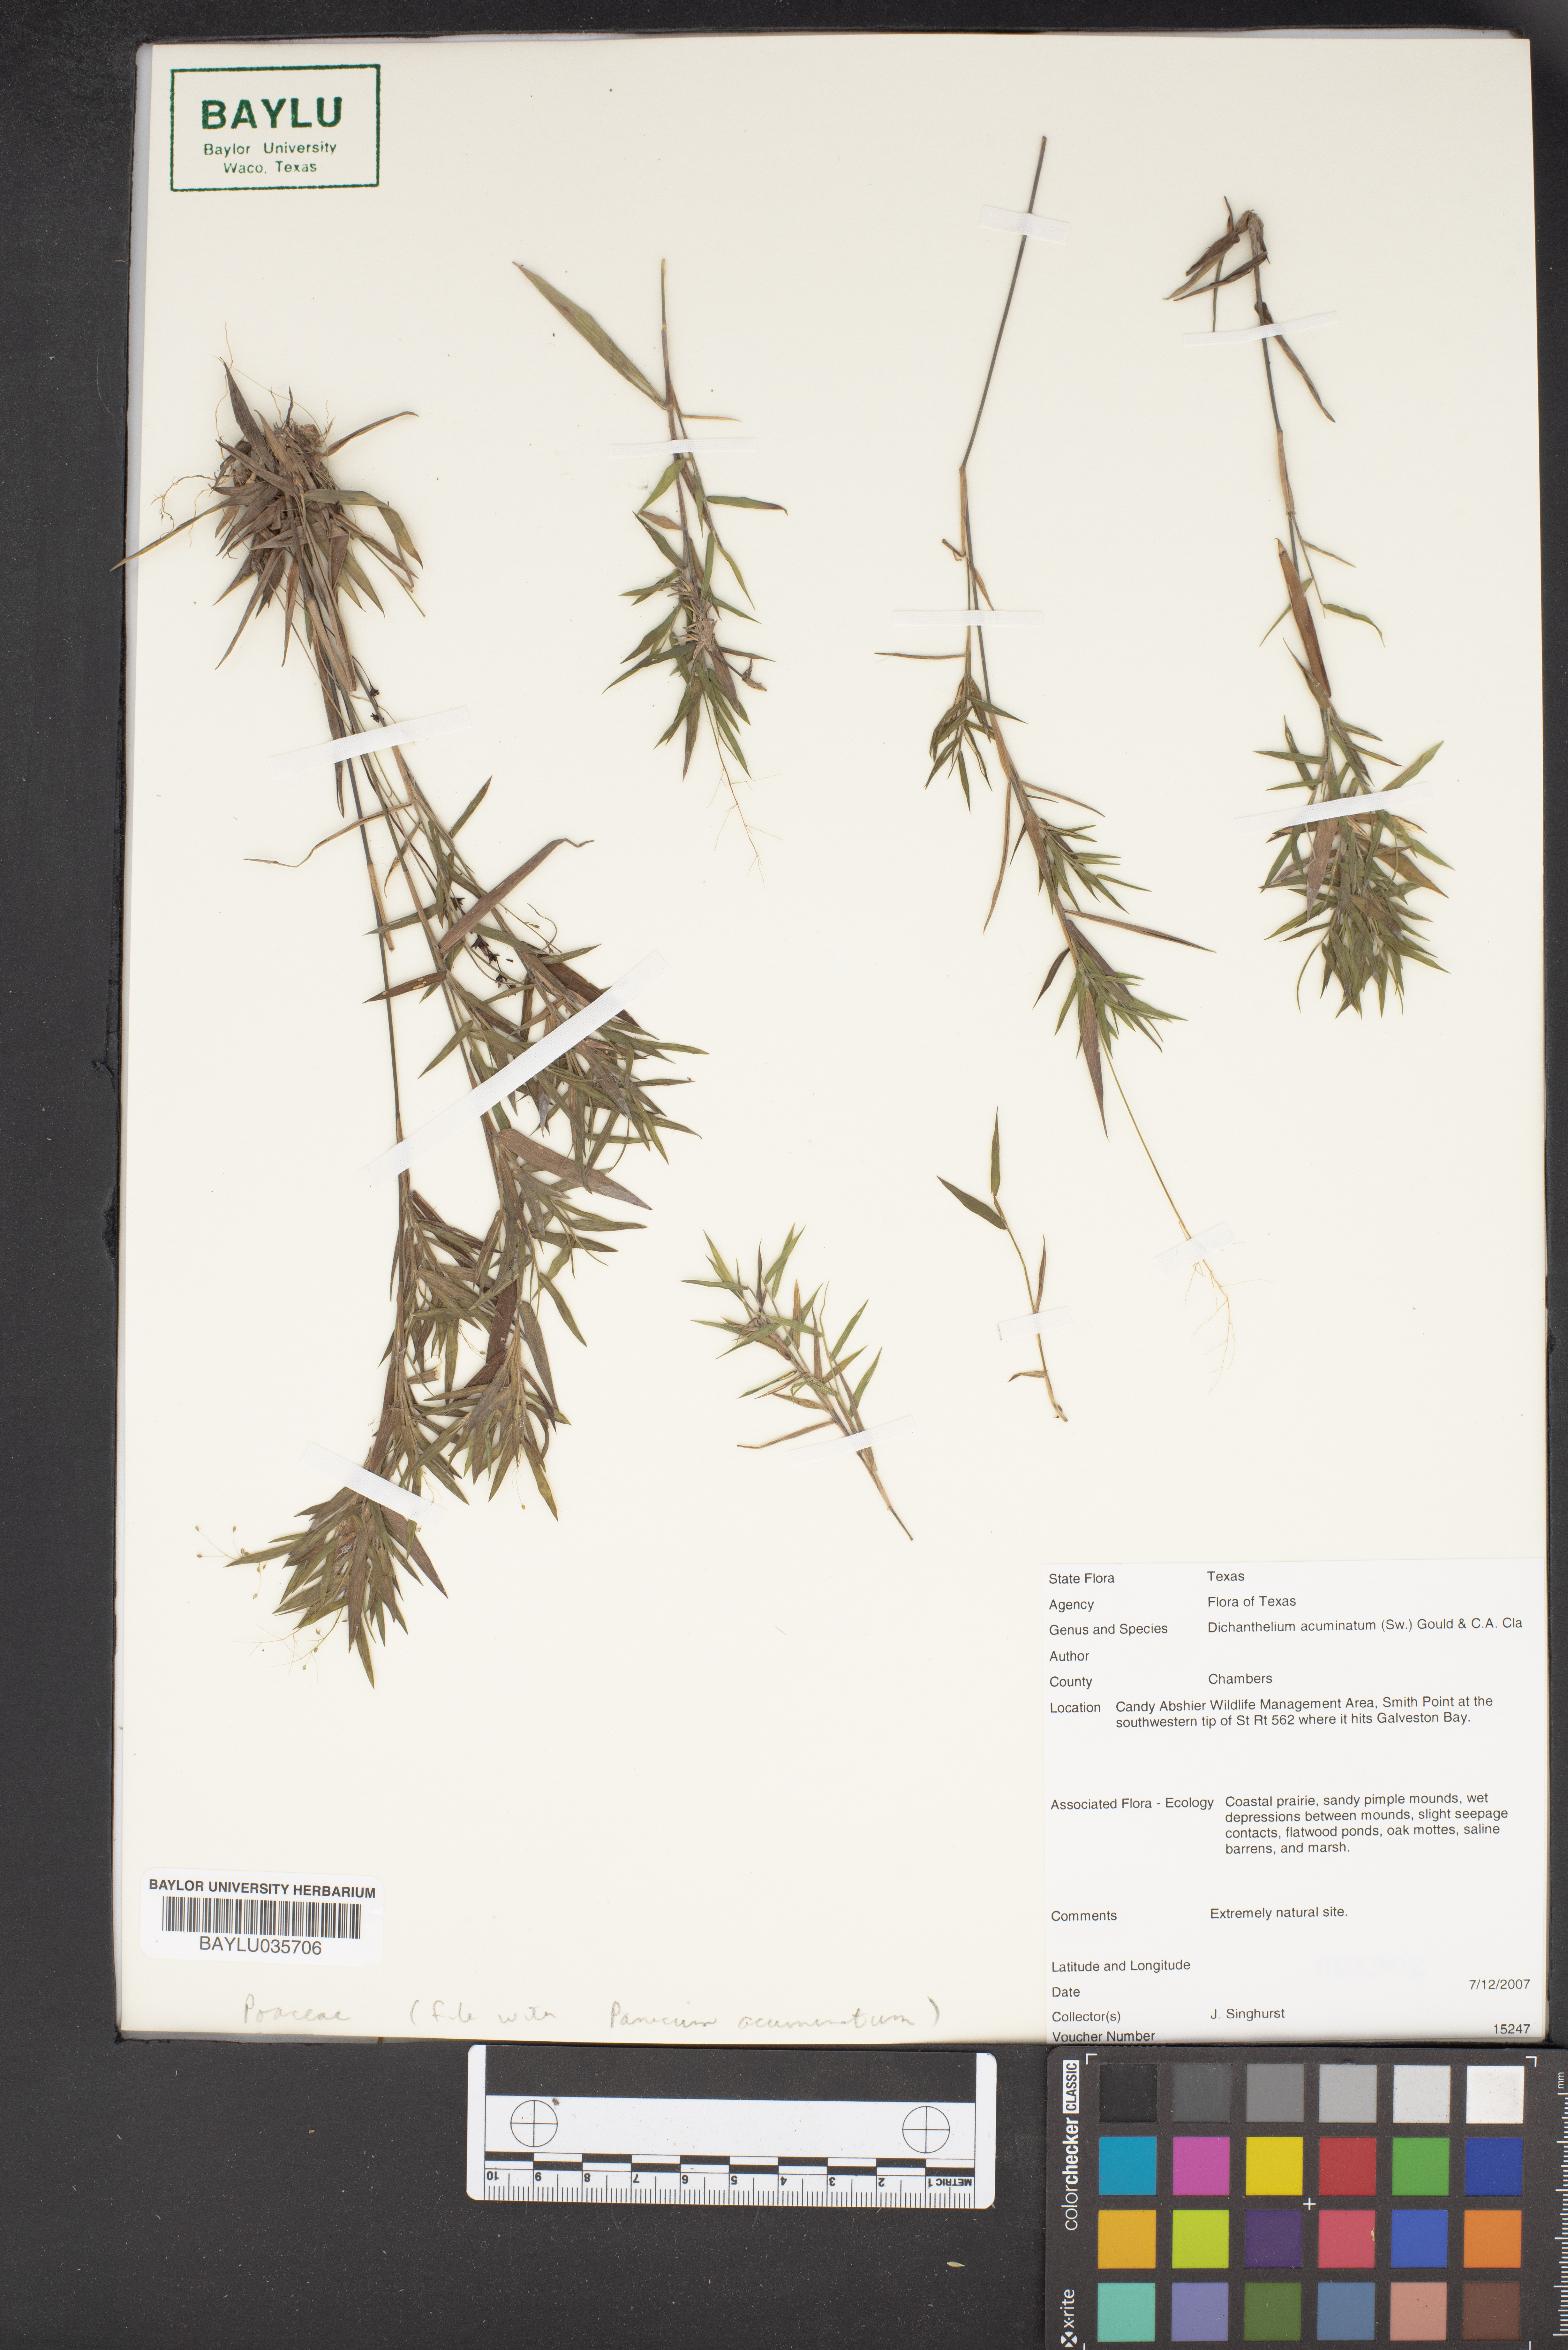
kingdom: Plantae
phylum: Tracheophyta
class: Liliopsida
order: Poales
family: Poaceae
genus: Dichanthelium
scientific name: Dichanthelium acuminatum
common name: Hairy panic grass
